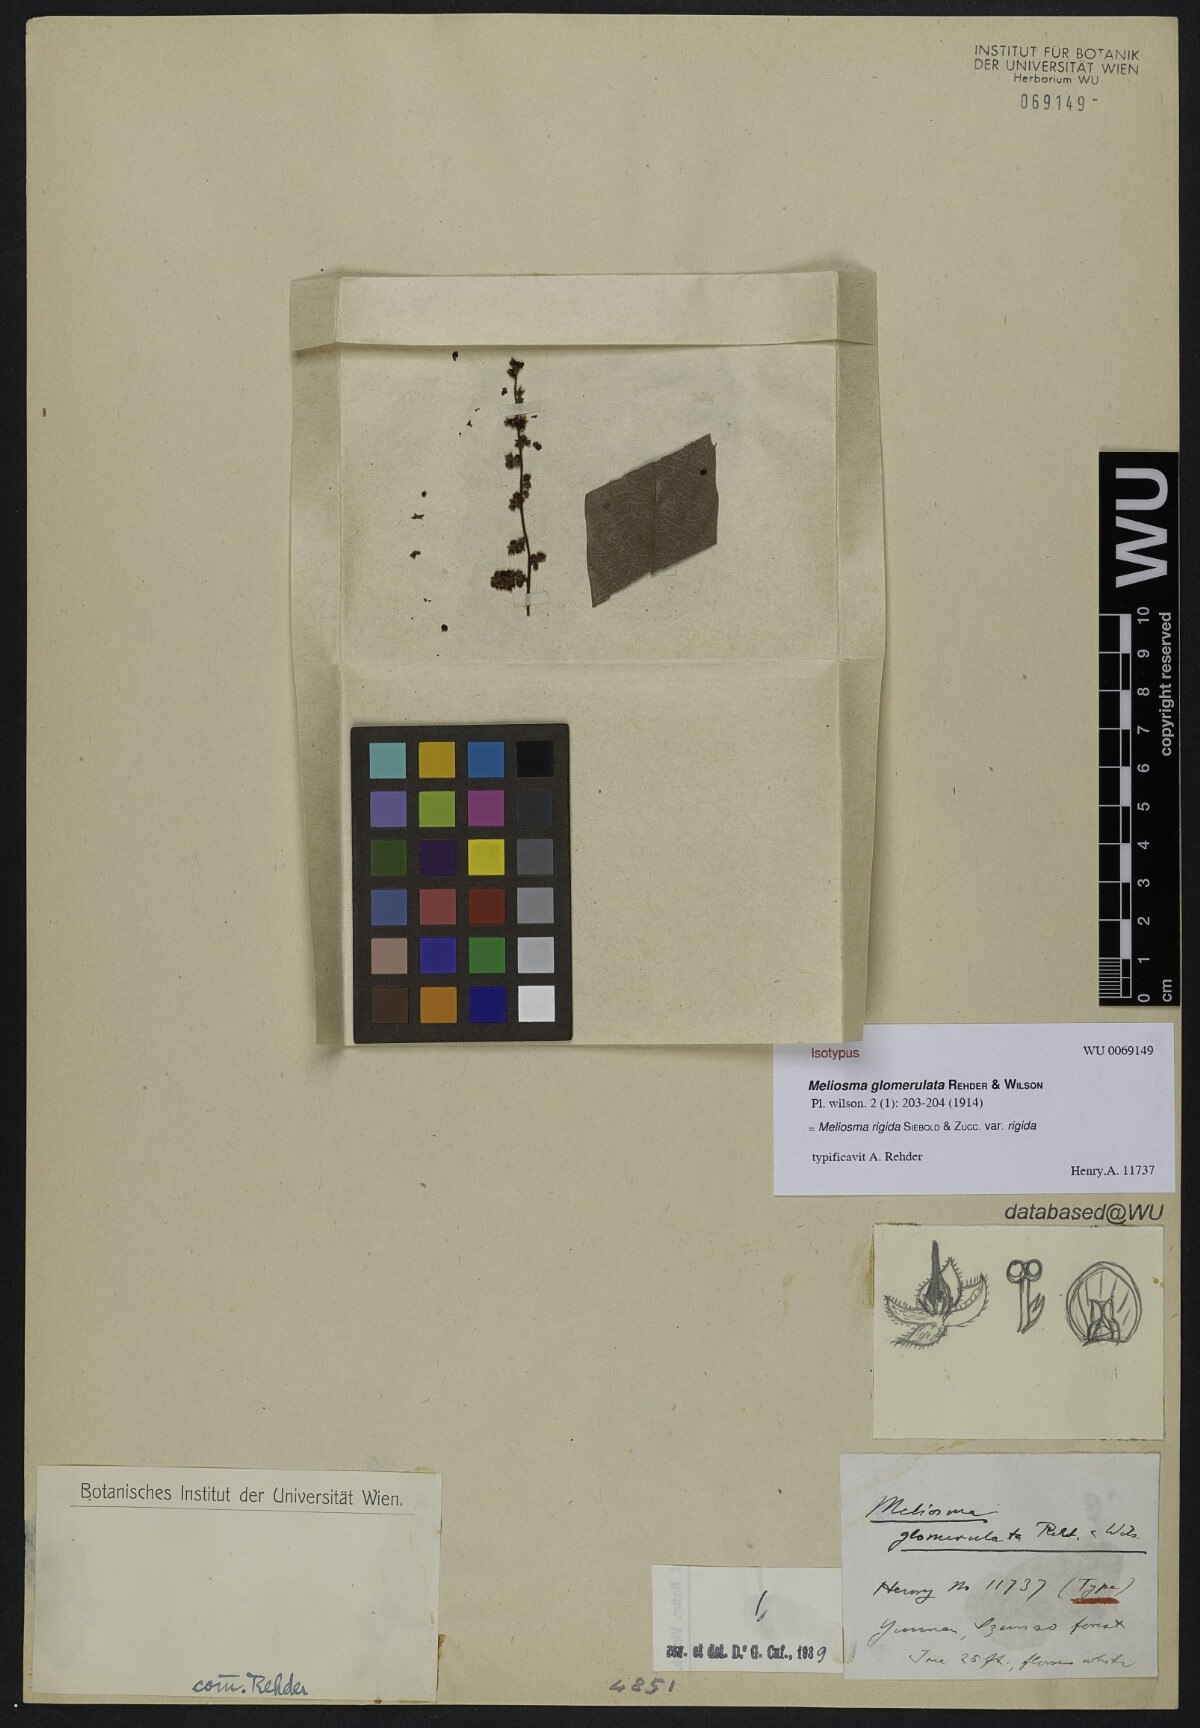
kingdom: Plantae
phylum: Tracheophyta
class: Magnoliopsida
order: Proteales
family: Sabiaceae
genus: Meliosma
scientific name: Meliosma rigida
